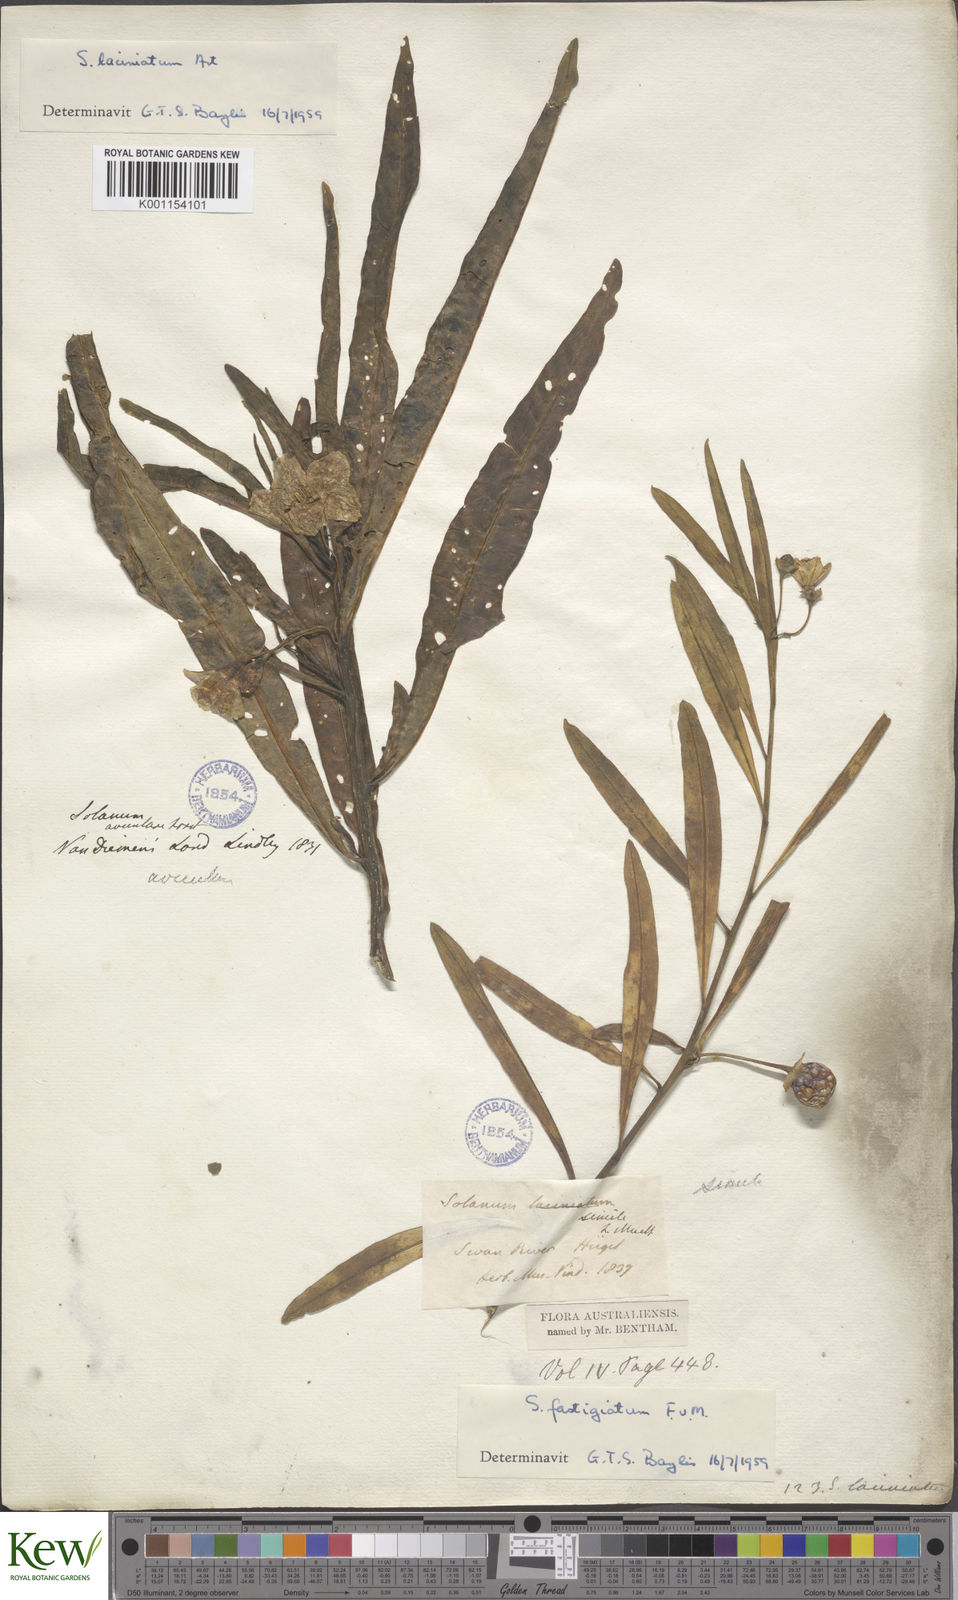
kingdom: Plantae
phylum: Tracheophyta
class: Magnoliopsida
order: Solanales
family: Solanaceae
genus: Solanum
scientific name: Solanum symonii
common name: South australian kangaroo-apple
